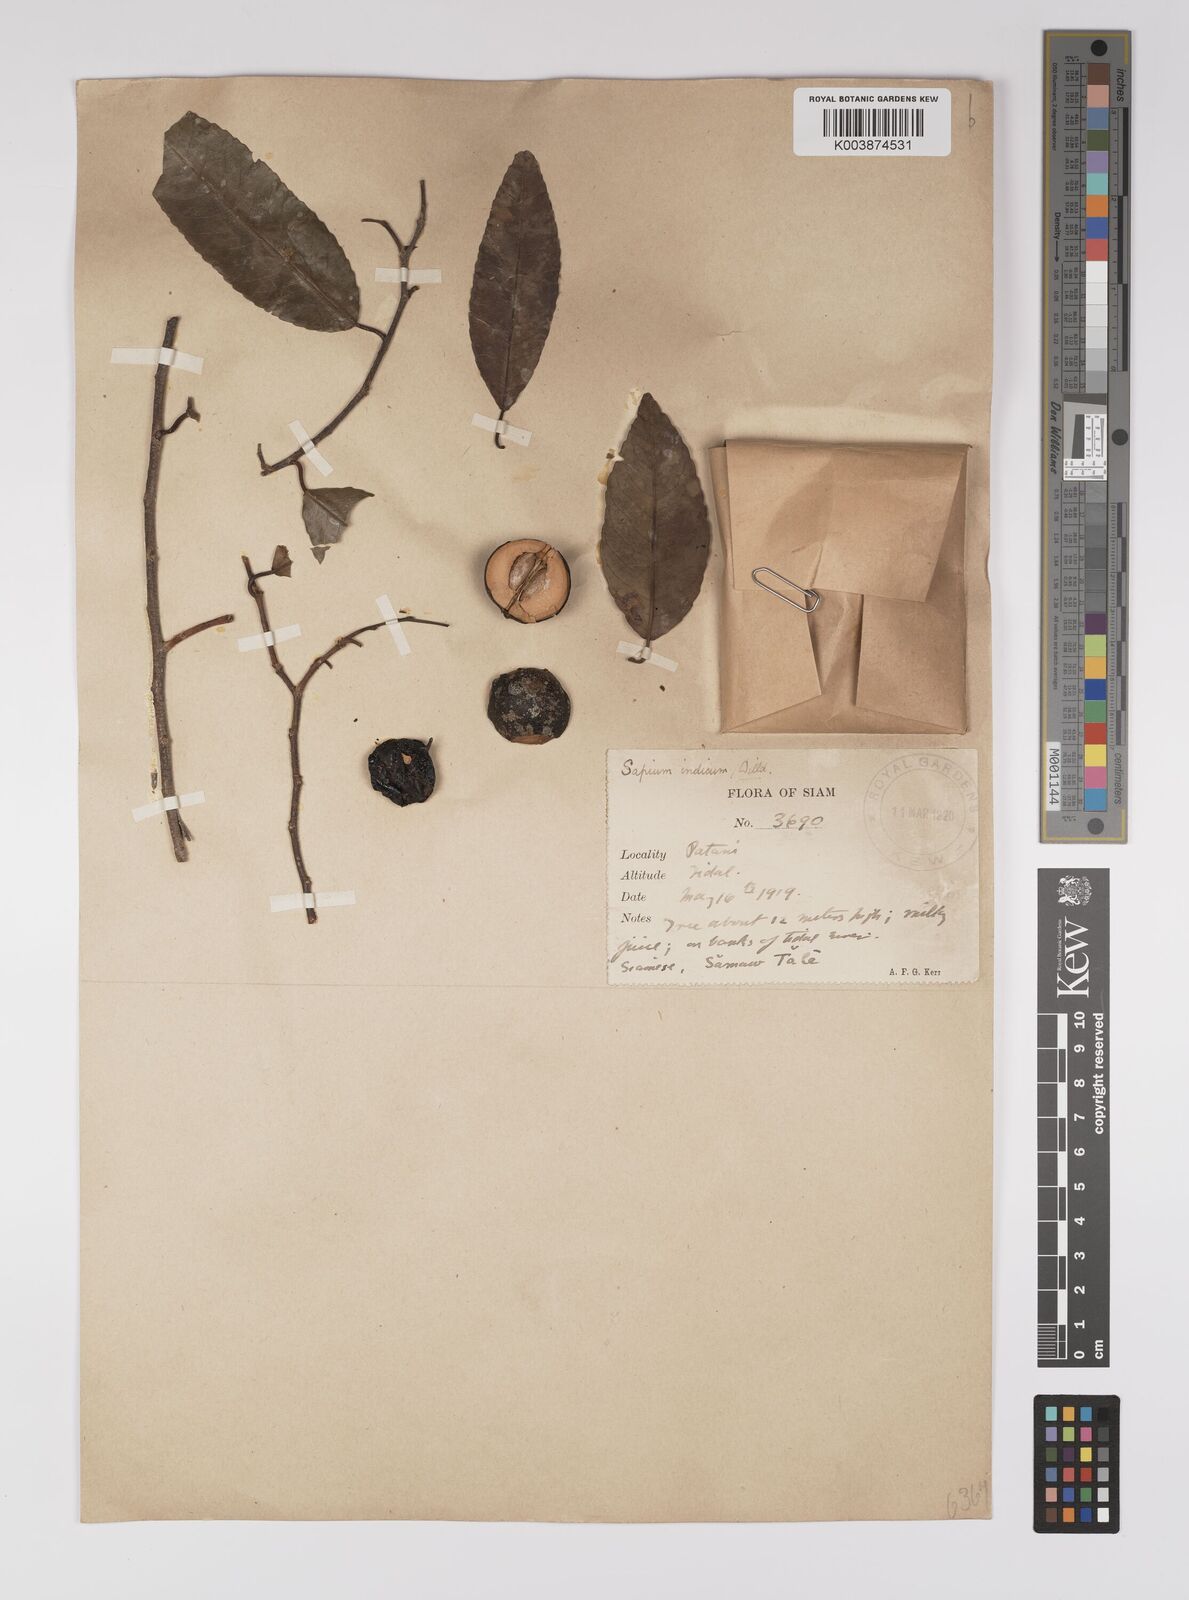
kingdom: Plantae
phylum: Tracheophyta
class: Magnoliopsida
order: Malpighiales
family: Euphorbiaceae
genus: Shirakiopsis
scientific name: Shirakiopsis indica
